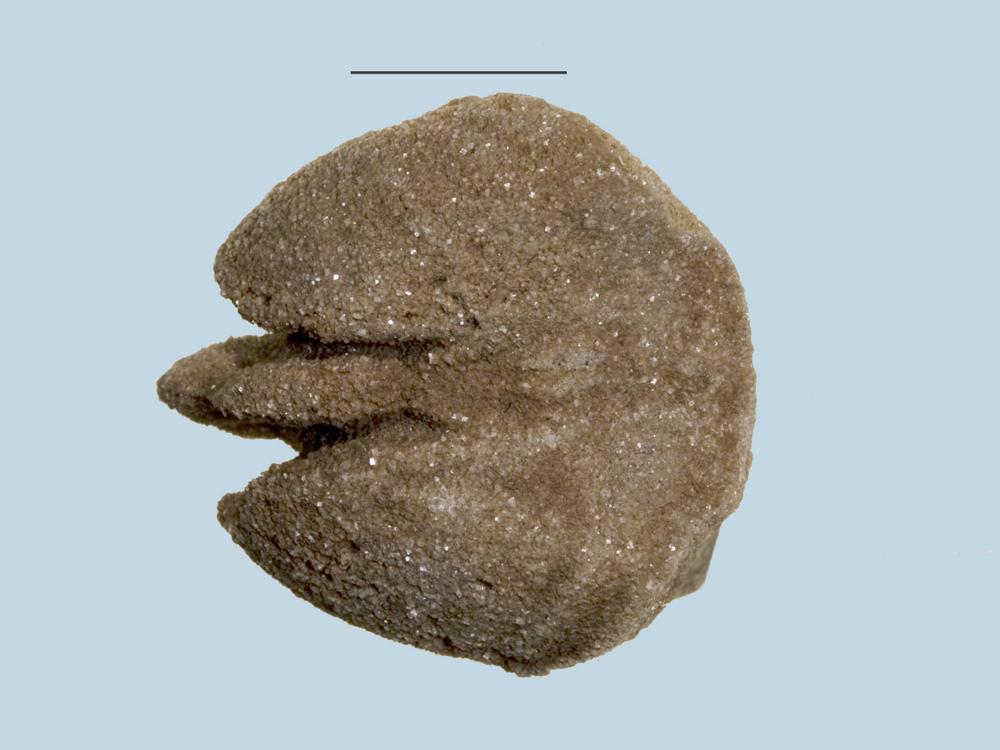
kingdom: Animalia
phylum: Brachiopoda
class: Rhynchonellata
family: Porambonitidae
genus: Porambonites
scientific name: Porambonites
